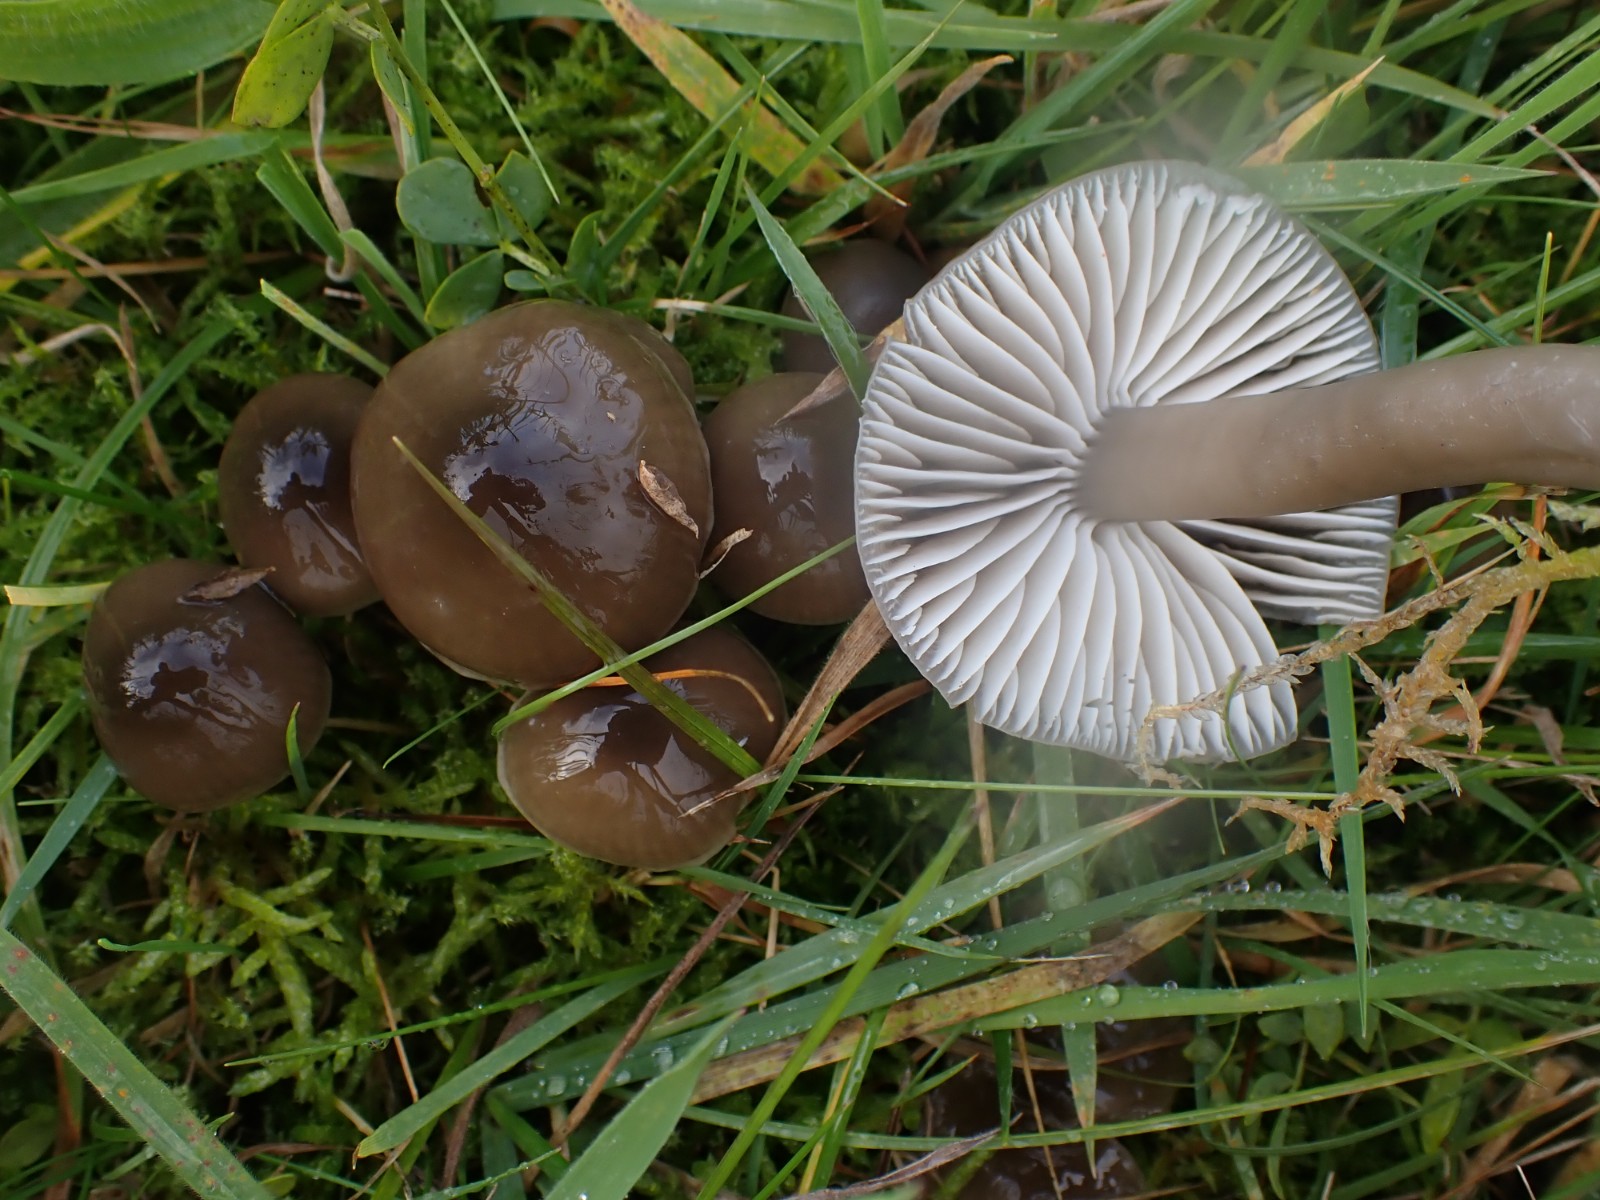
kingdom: Fungi
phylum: Basidiomycota
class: Agaricomycetes
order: Agaricales
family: Hygrophoraceae
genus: Gliophorus
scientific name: Gliophorus irrigatus
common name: slimet vokshat
